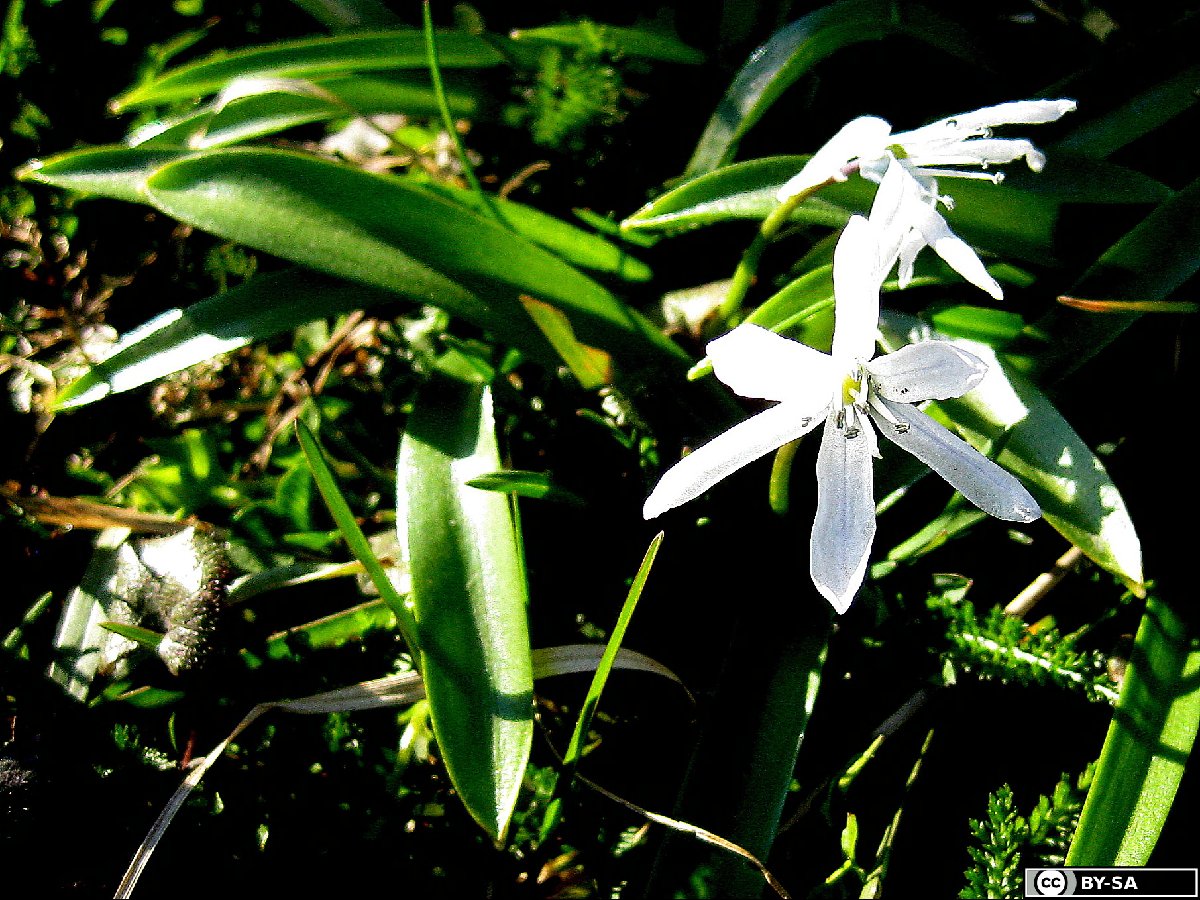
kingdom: Plantae
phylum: Tracheophyta
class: Liliopsida
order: Asparagales
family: Asparagaceae
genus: Scilla
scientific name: Scilla mischtschenkoana
